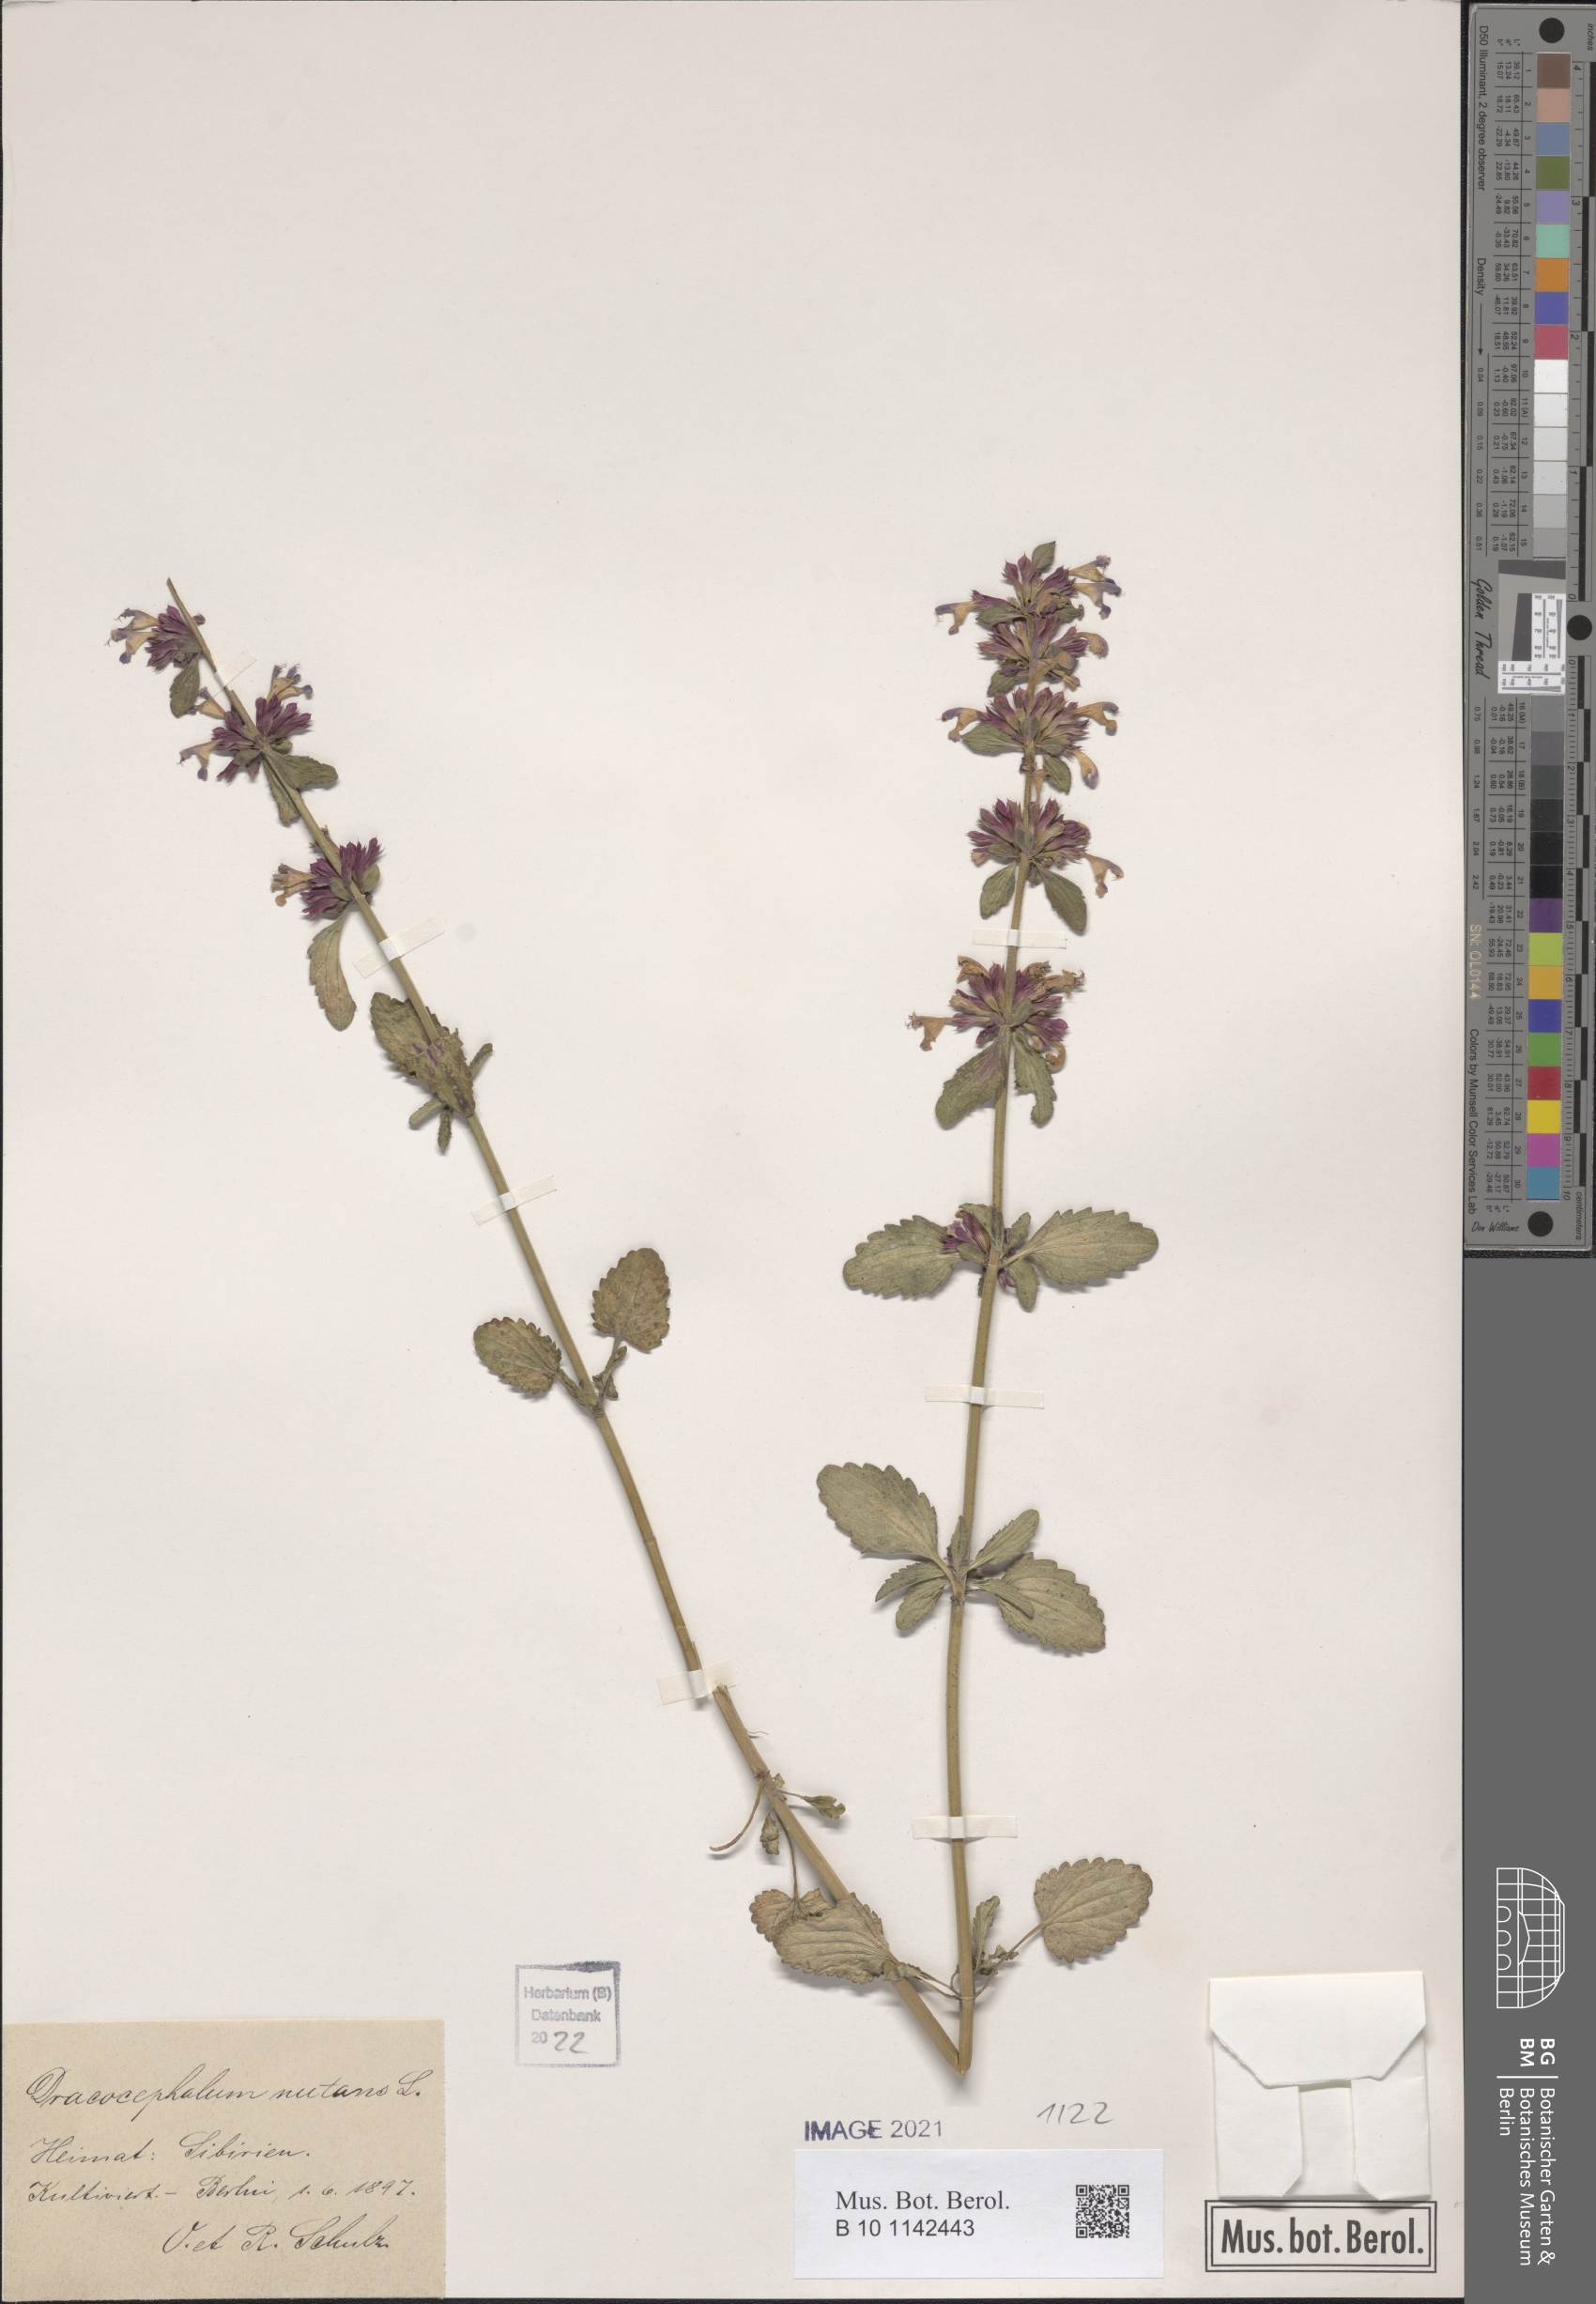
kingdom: Plantae
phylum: Tracheophyta
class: Magnoliopsida
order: Lamiales
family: Lamiaceae
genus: Dracocephalum
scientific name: Dracocephalum nutans
